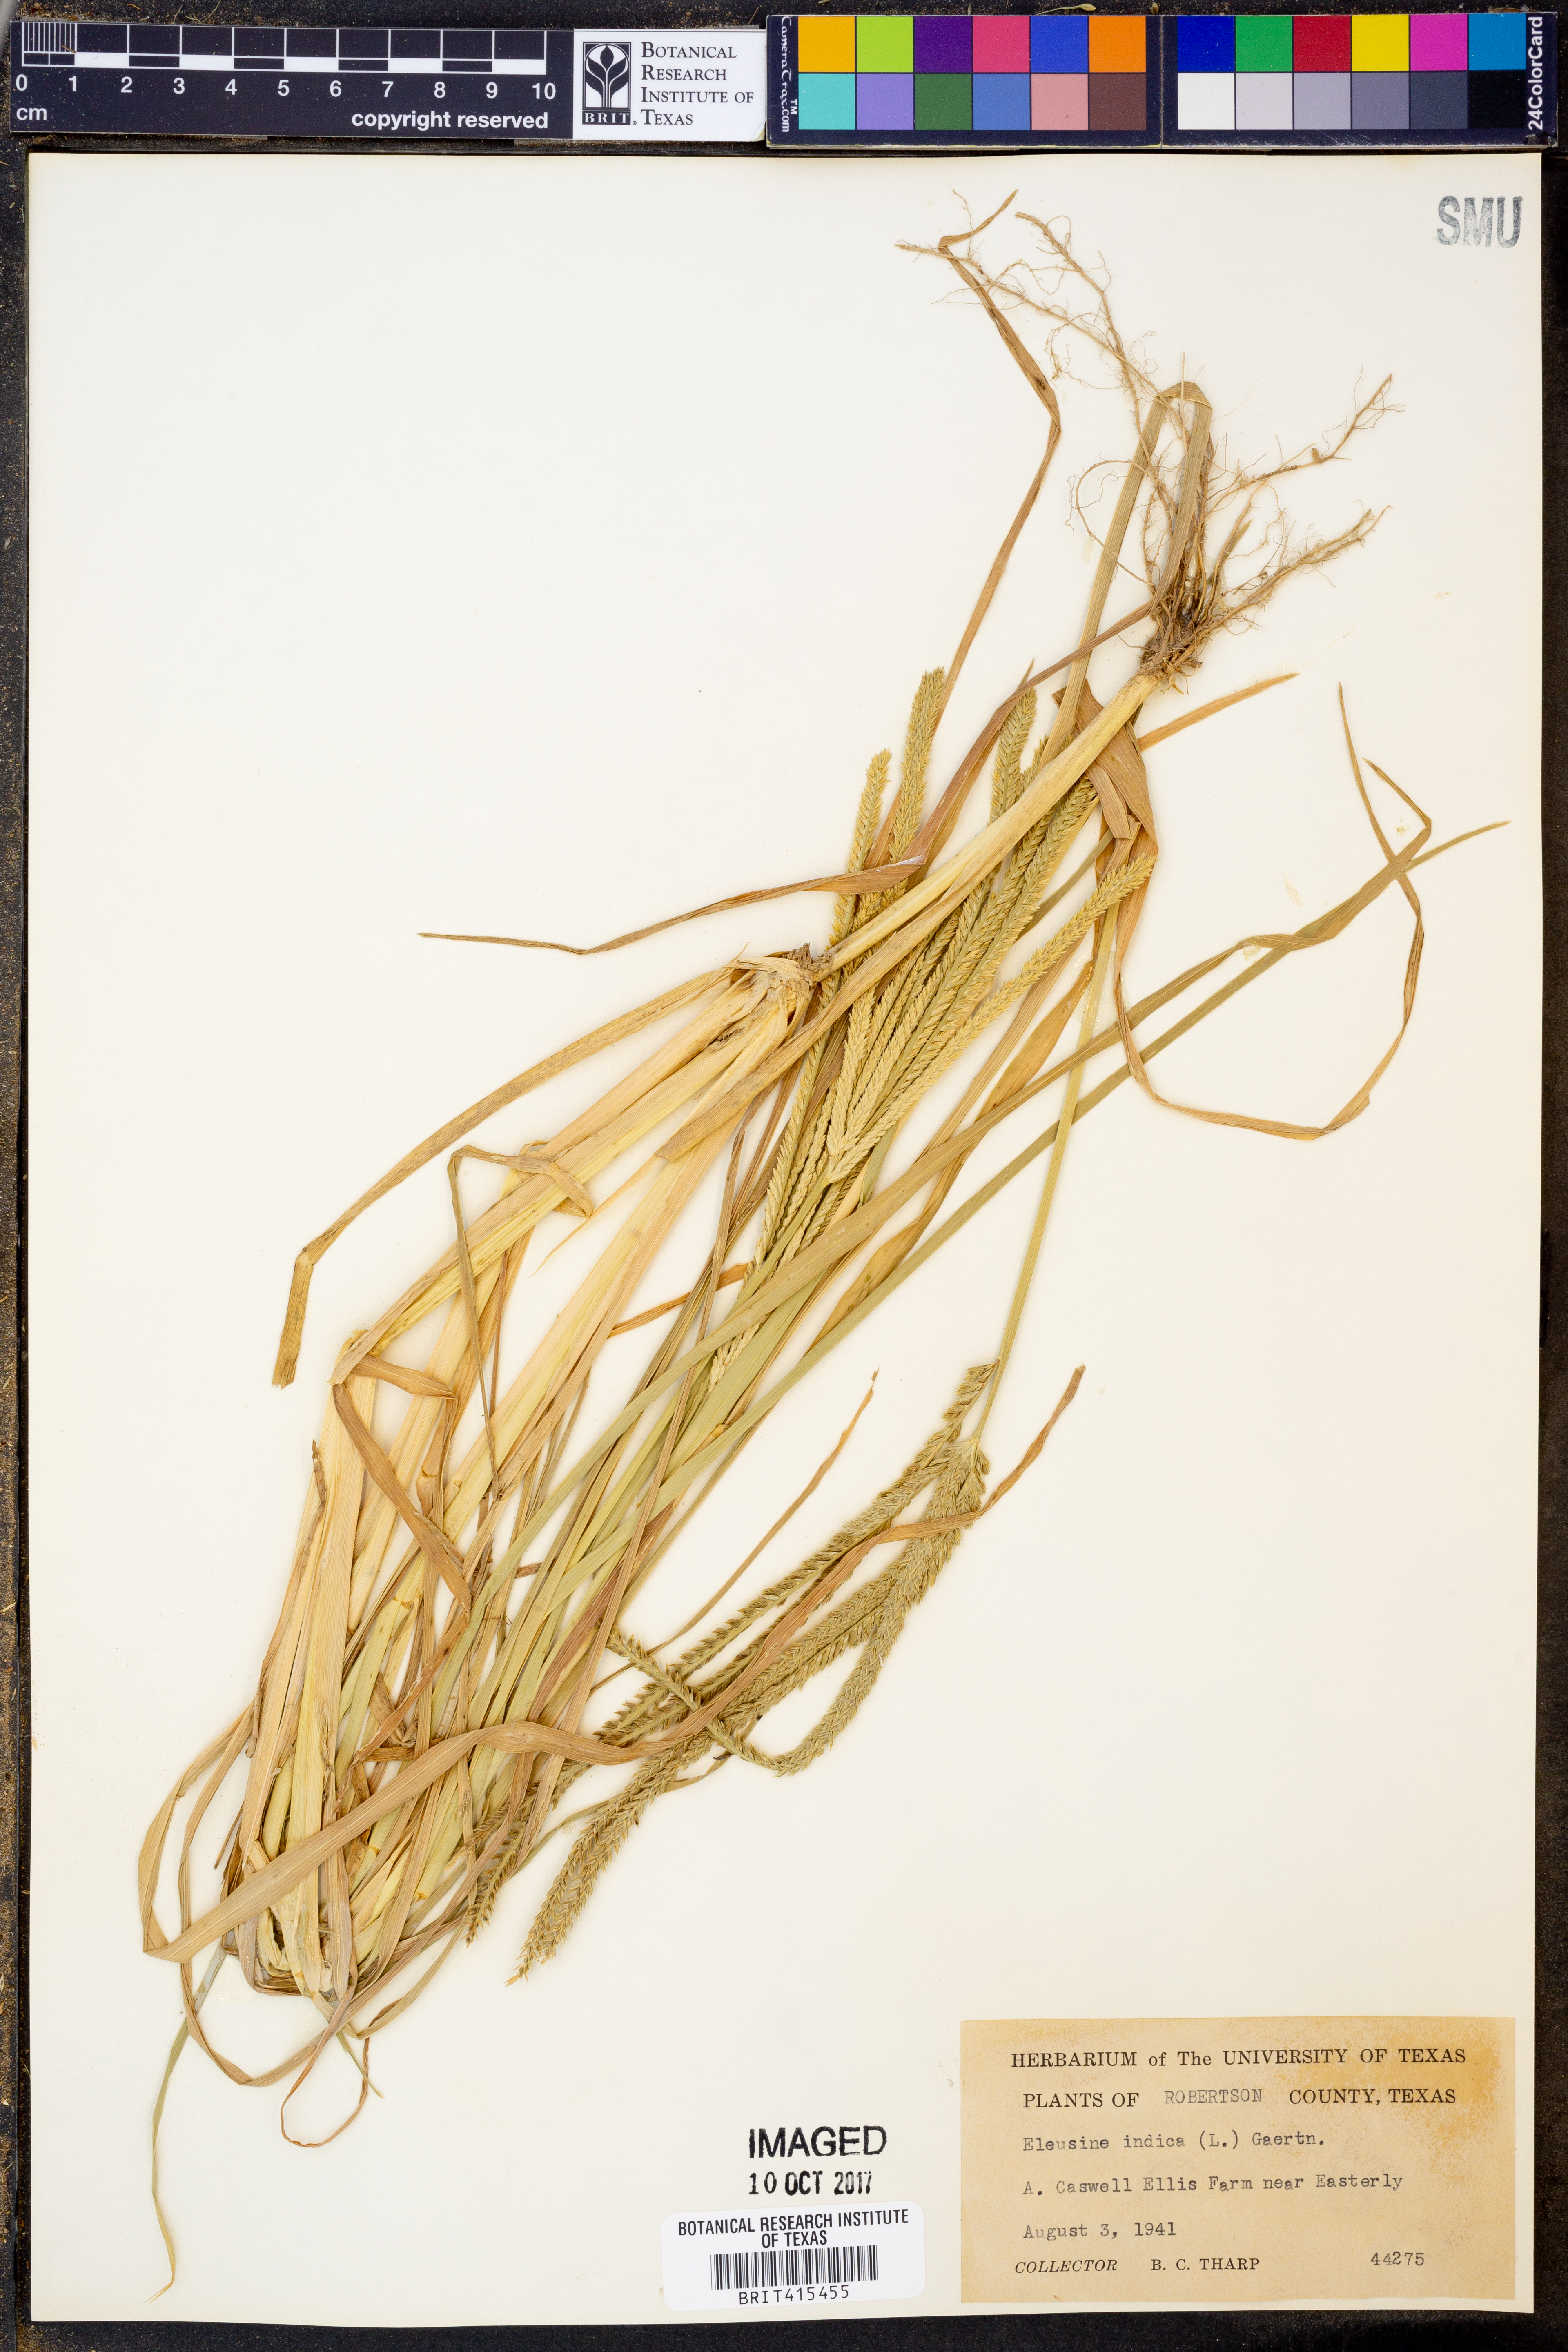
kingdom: Plantae
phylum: Tracheophyta
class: Liliopsida
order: Poales
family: Poaceae
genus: Eleusine
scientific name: Eleusine indica
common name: Yard-grass
